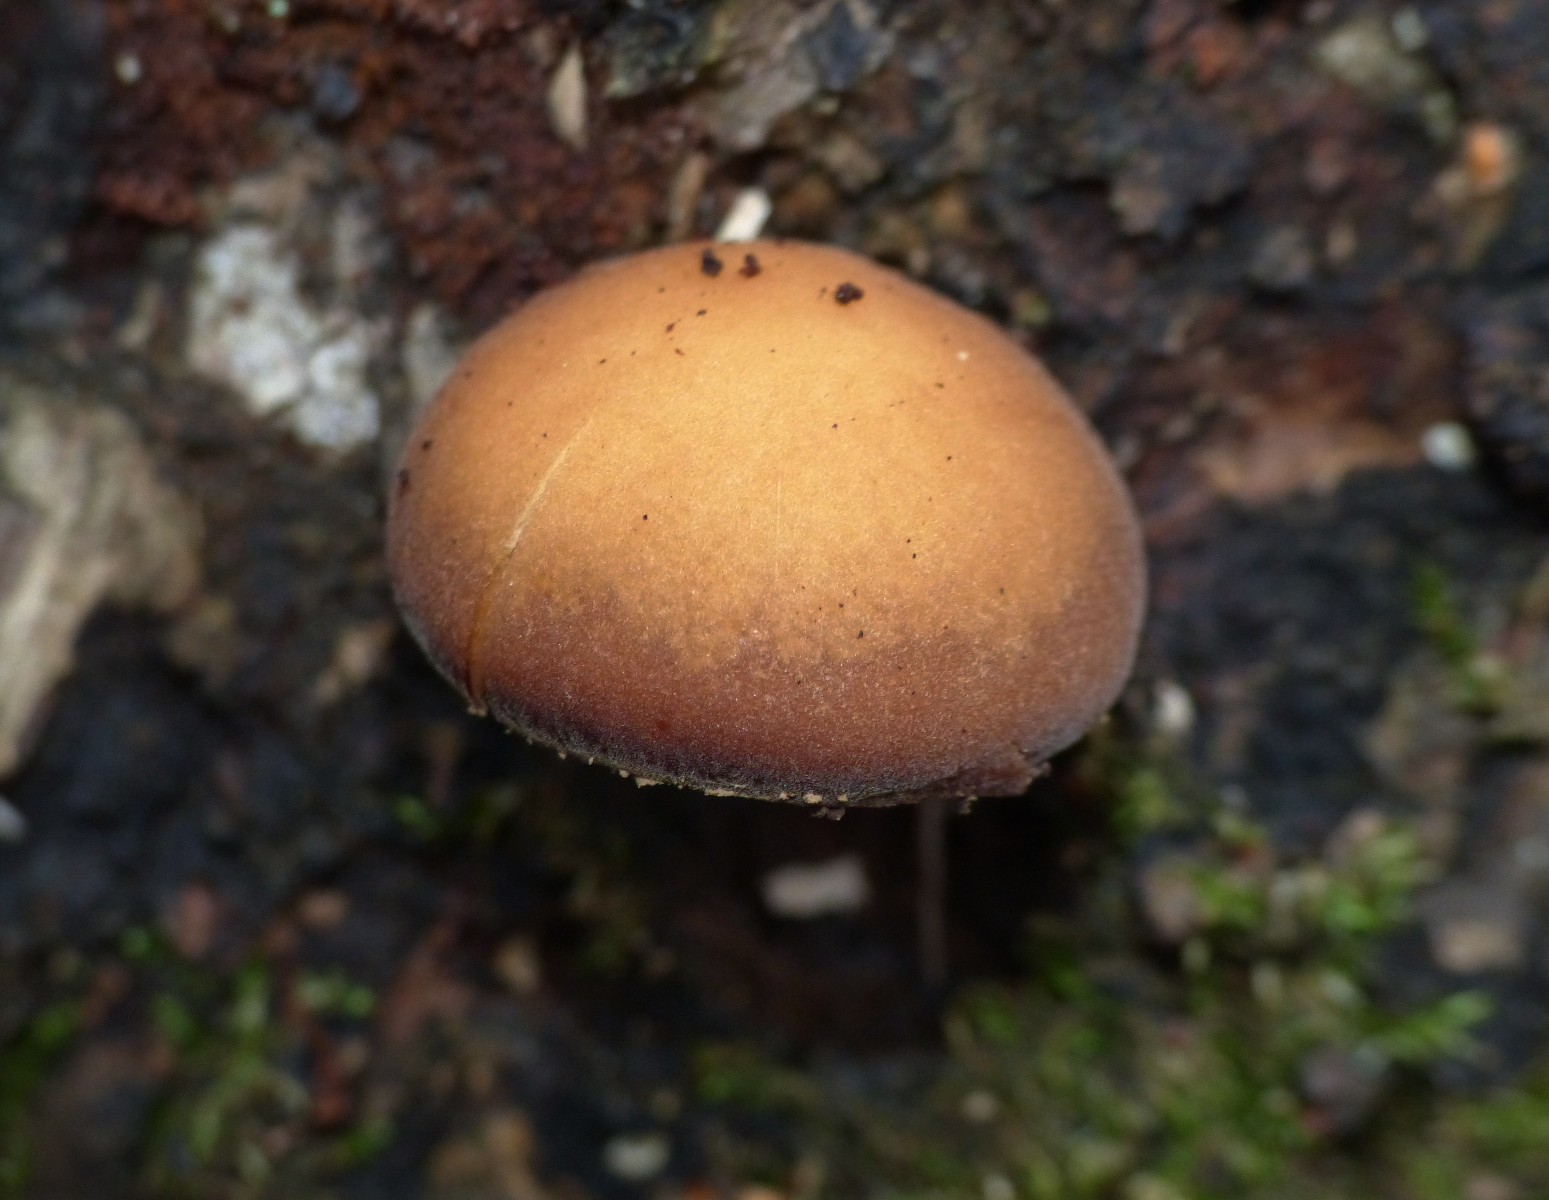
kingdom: Fungi
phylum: Basidiomycota
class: Agaricomycetes
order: Agaricales
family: Crepidotaceae
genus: Simocybe
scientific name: Simocybe sumptuosa
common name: stor skyggehat
